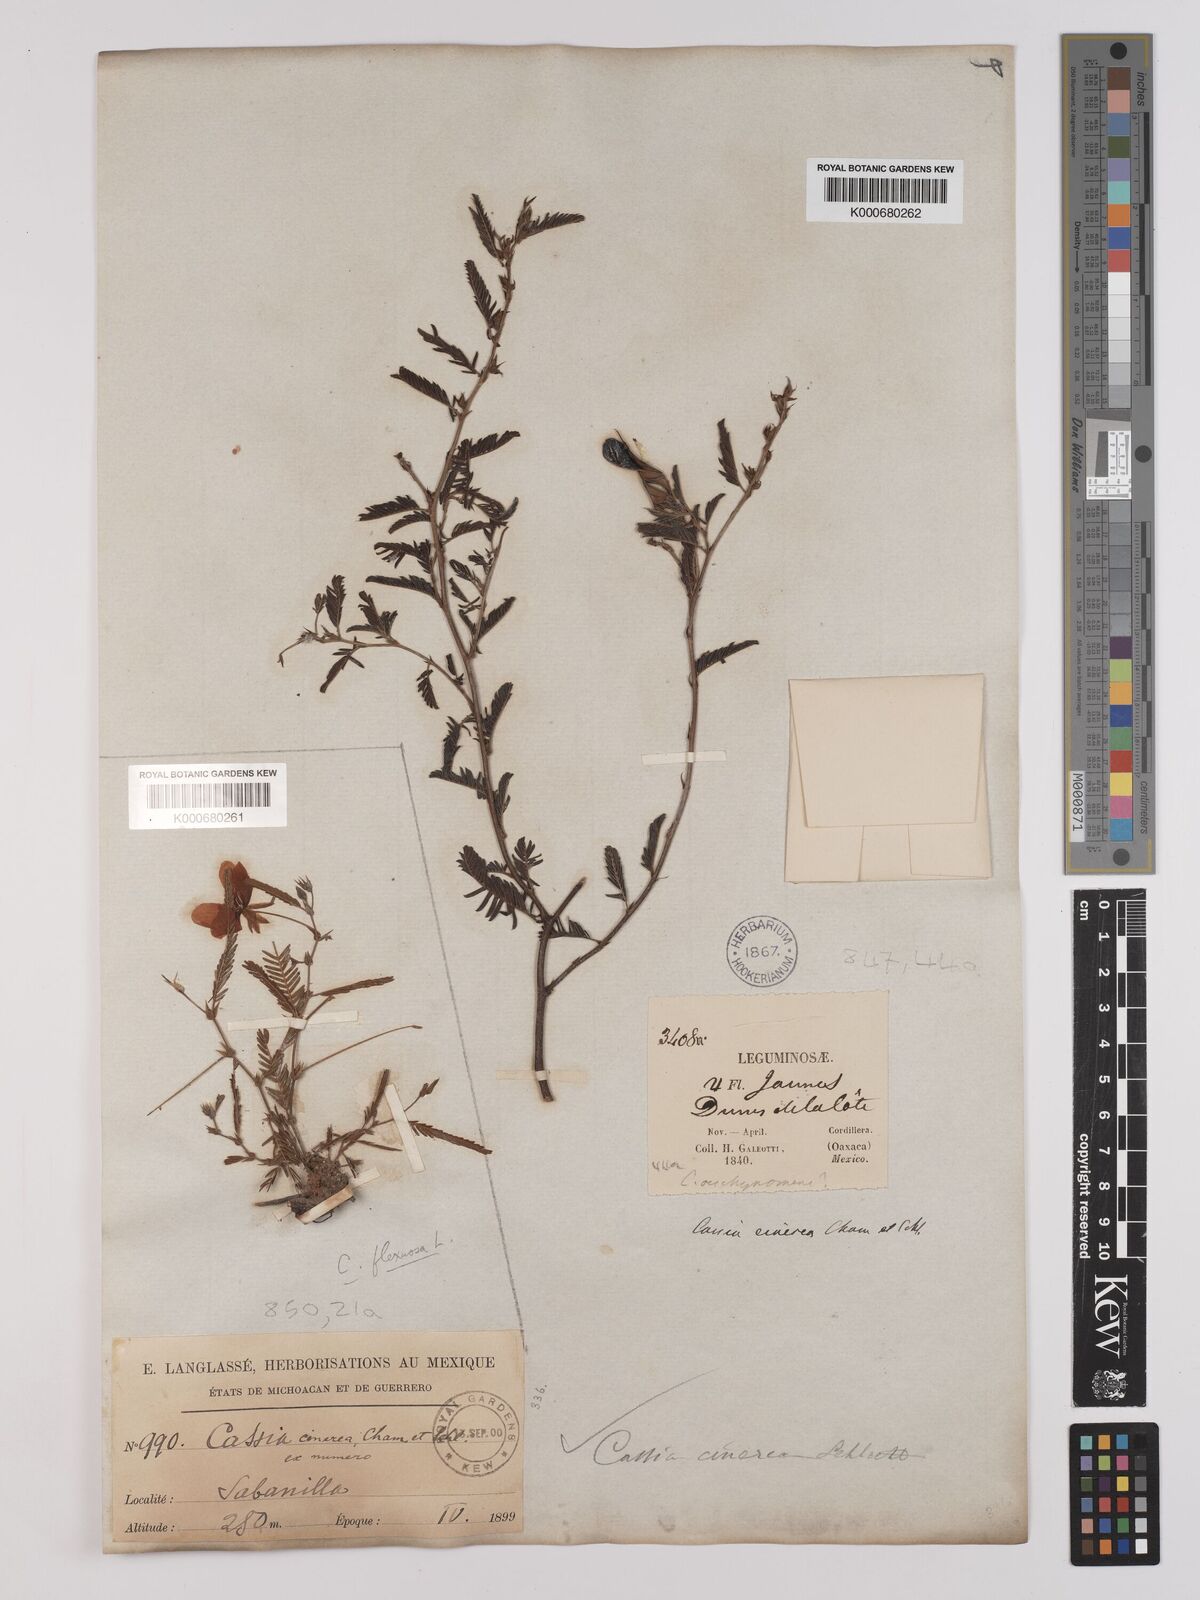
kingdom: Plantae
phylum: Tracheophyta
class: Magnoliopsida
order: Fabales
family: Fabaceae
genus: Chamaecrista
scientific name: Chamaecrista chamaecristoides
